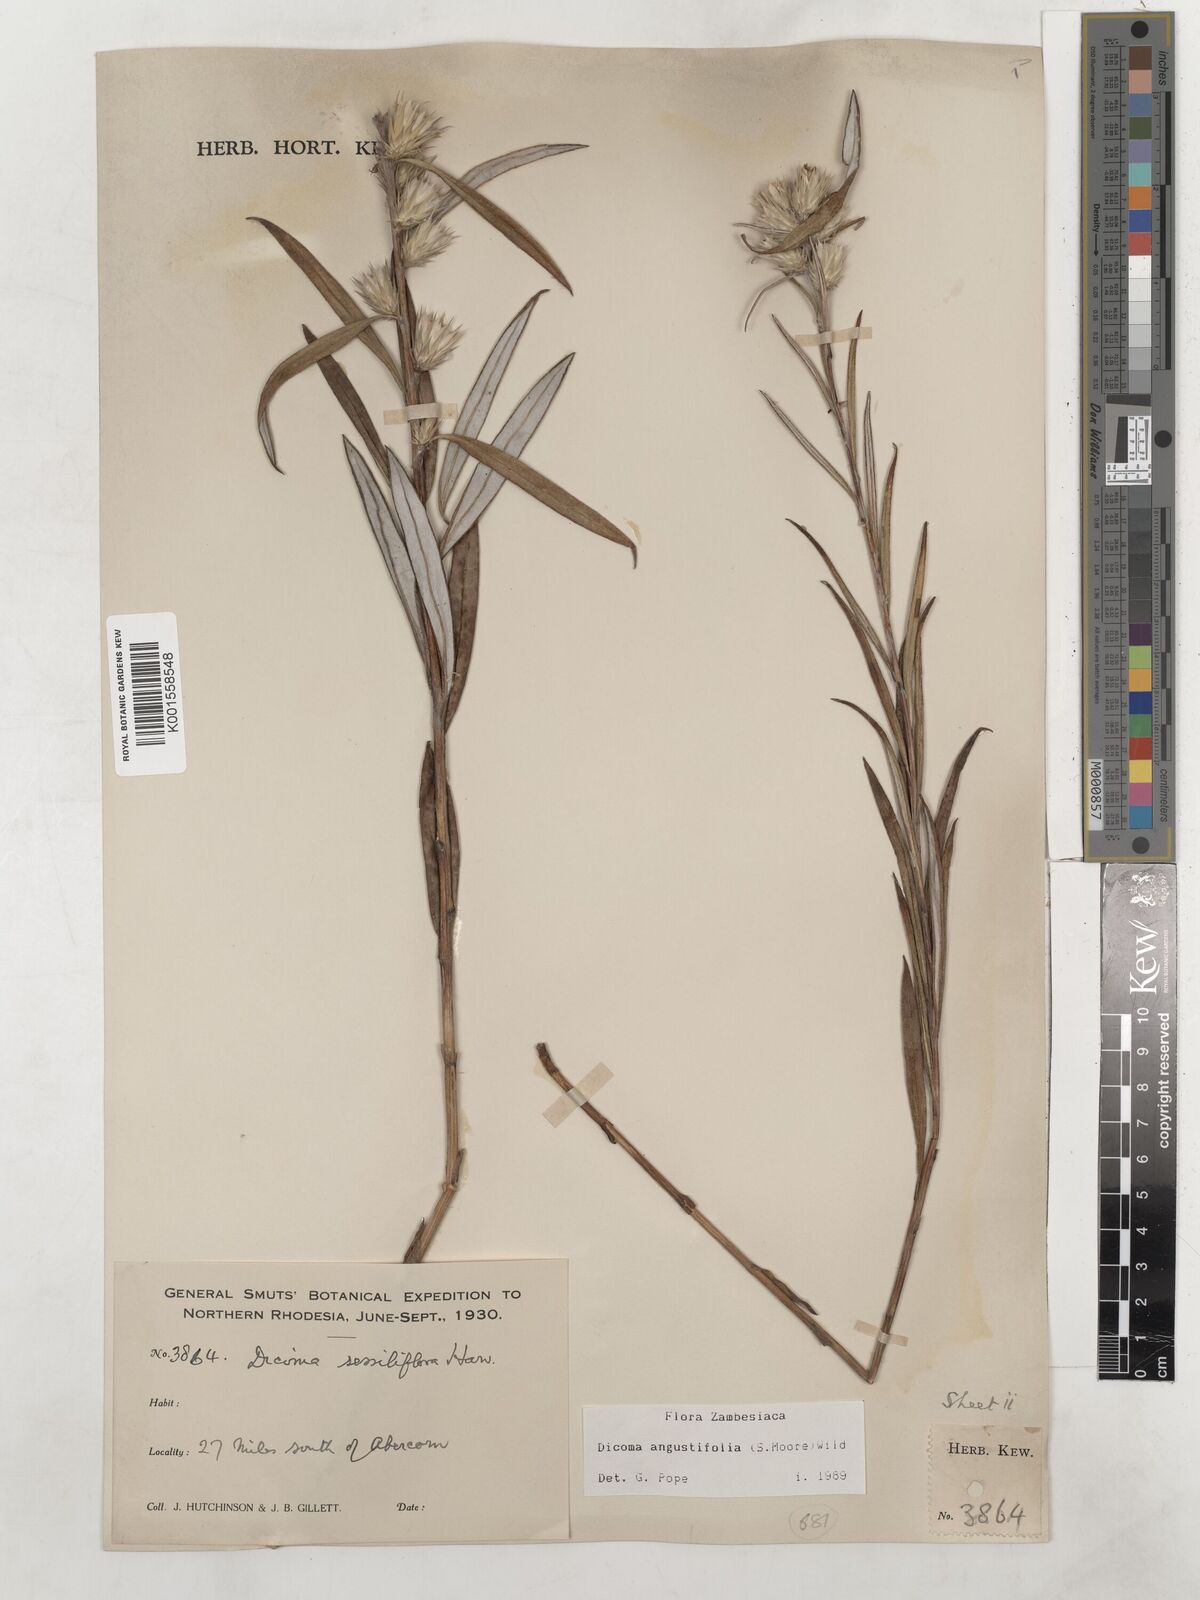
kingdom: Plantae
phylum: Tracheophyta
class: Magnoliopsida
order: Asterales
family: Asteraceae
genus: Macledium
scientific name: Macledium poggei
